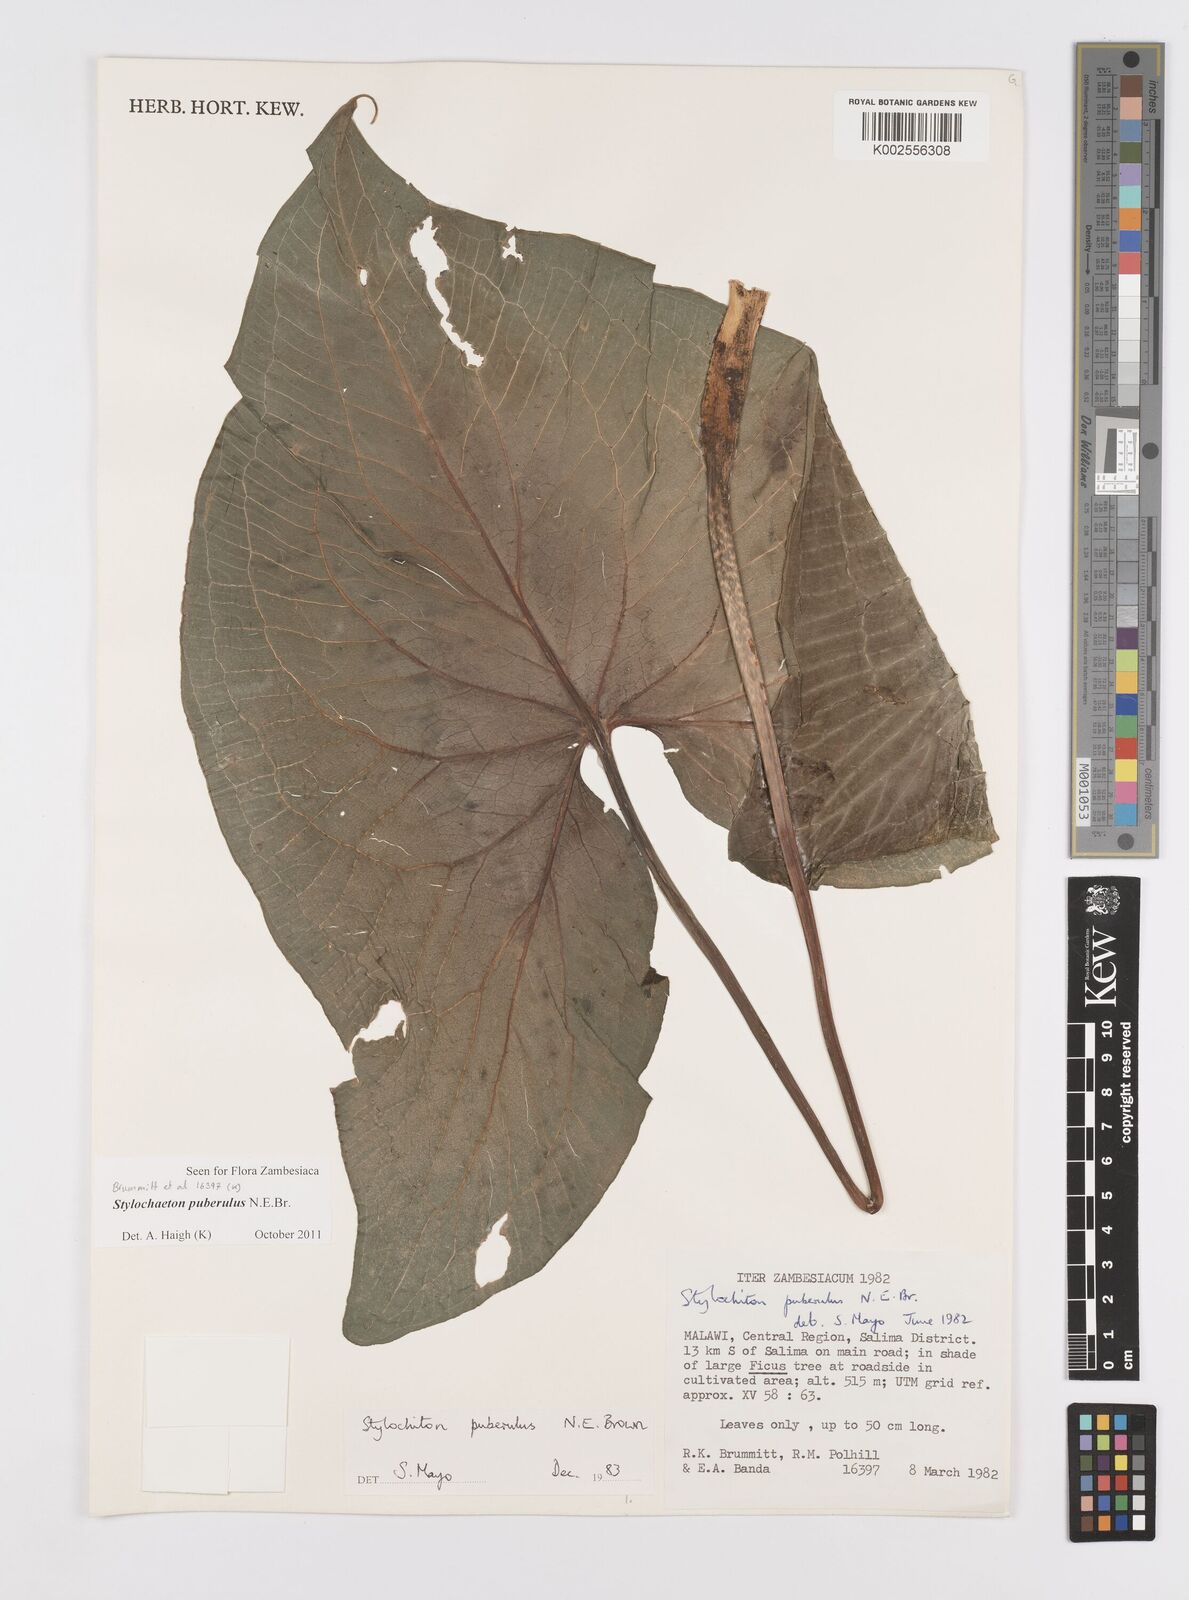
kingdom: Plantae
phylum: Tracheophyta
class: Liliopsida
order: Alismatales
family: Araceae
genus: Stylochaeton
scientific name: Stylochaeton puberulum
